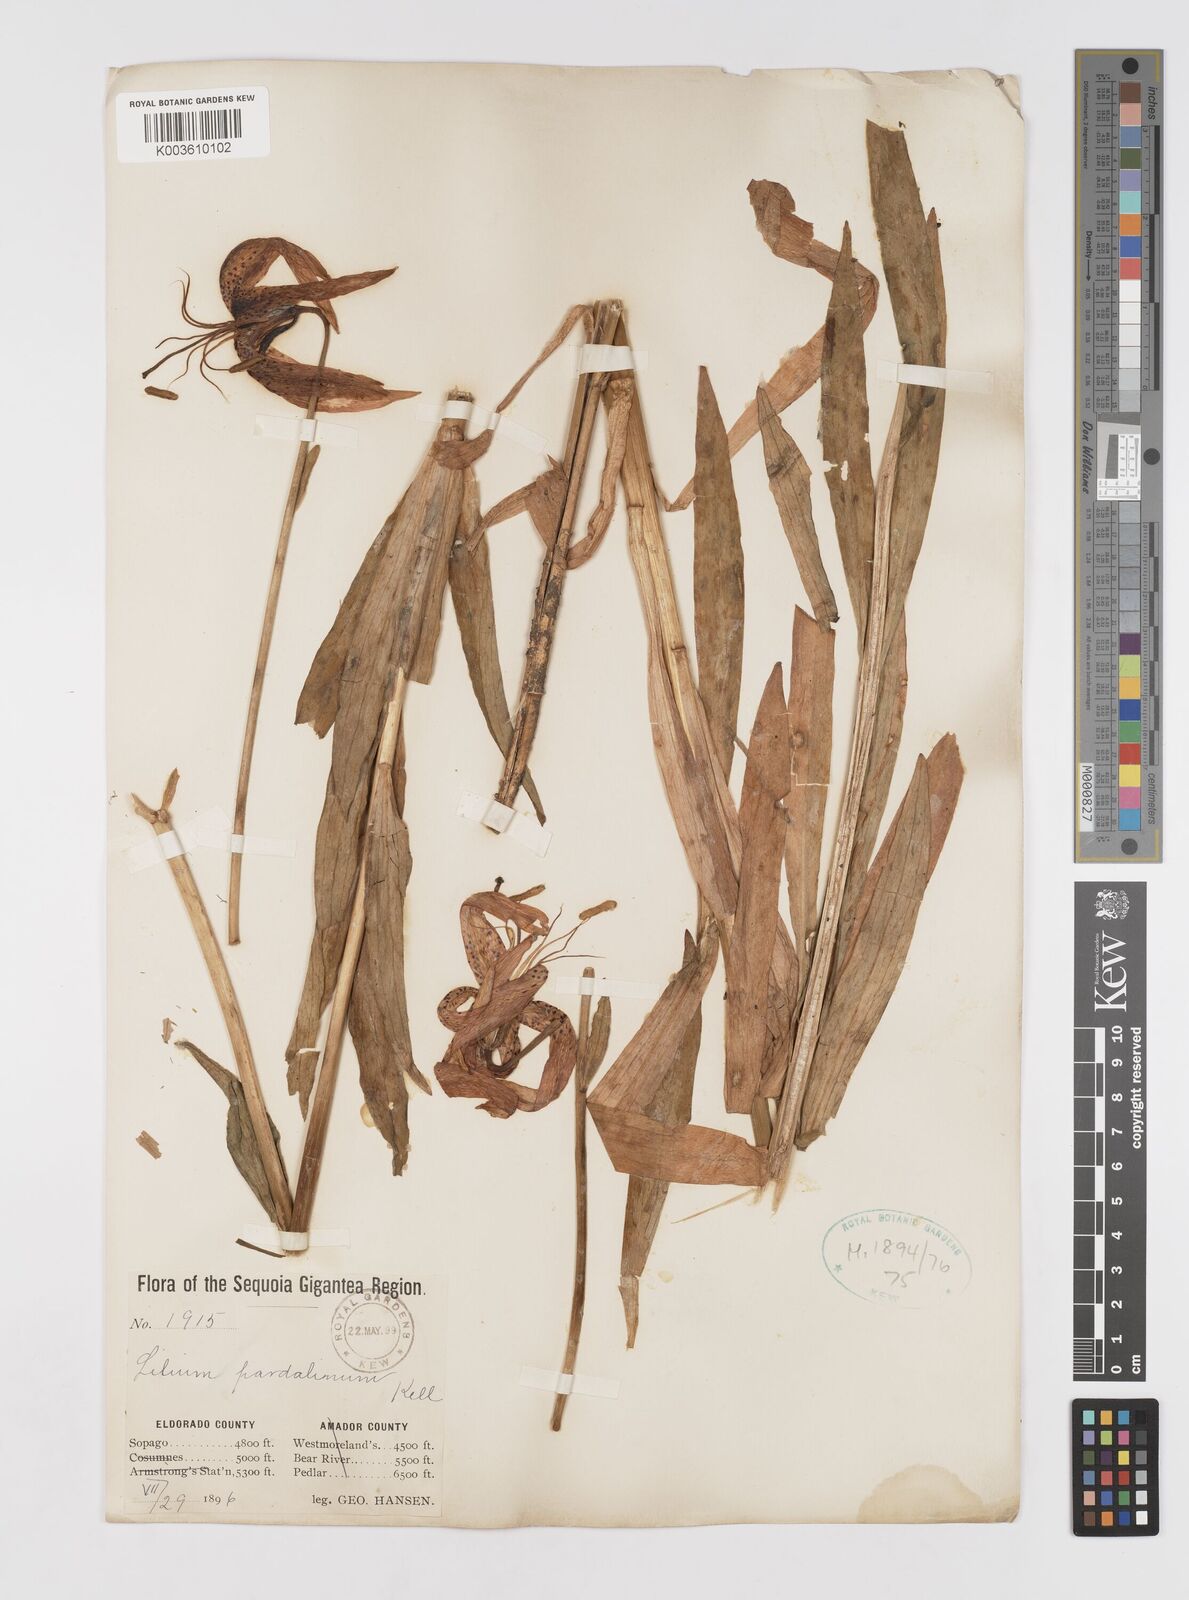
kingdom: Plantae
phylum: Tracheophyta
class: Liliopsida
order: Liliales
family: Liliaceae
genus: Lilium
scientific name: Lilium pardalinum
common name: Panther lily
